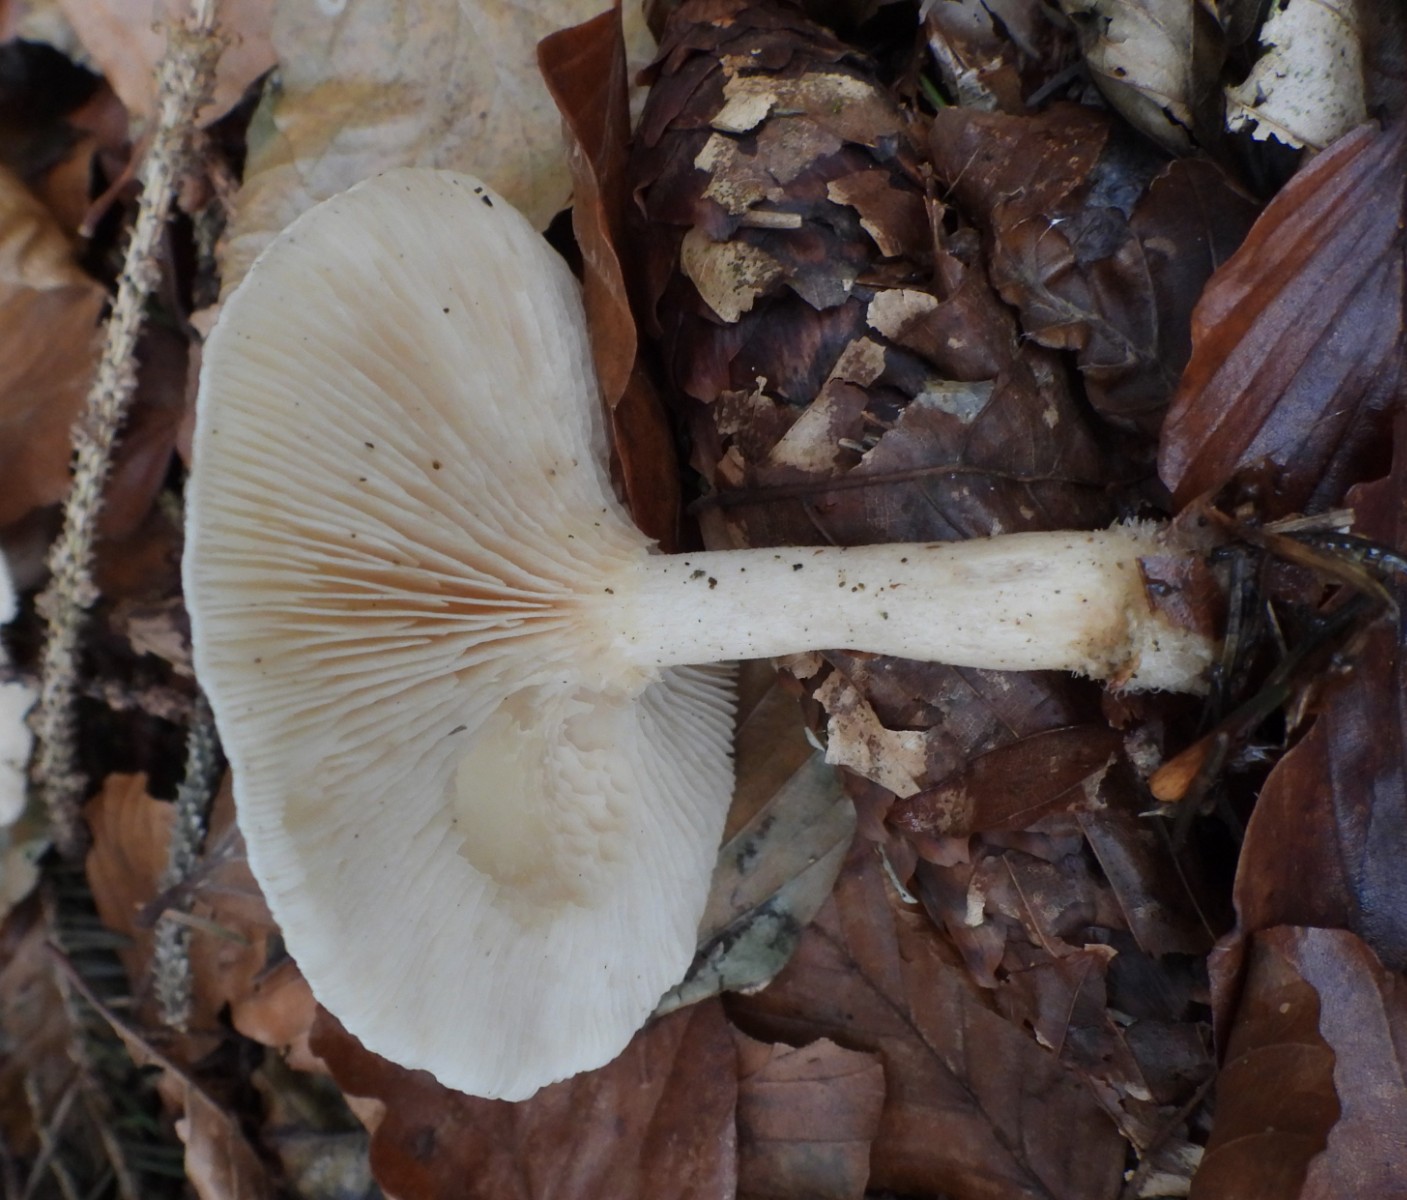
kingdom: Fungi
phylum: Basidiomycota
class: Agaricomycetes
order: Agaricales
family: Tricholomataceae
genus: Clitocybe
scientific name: Clitocybe phyllophila
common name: løv-tragthat
